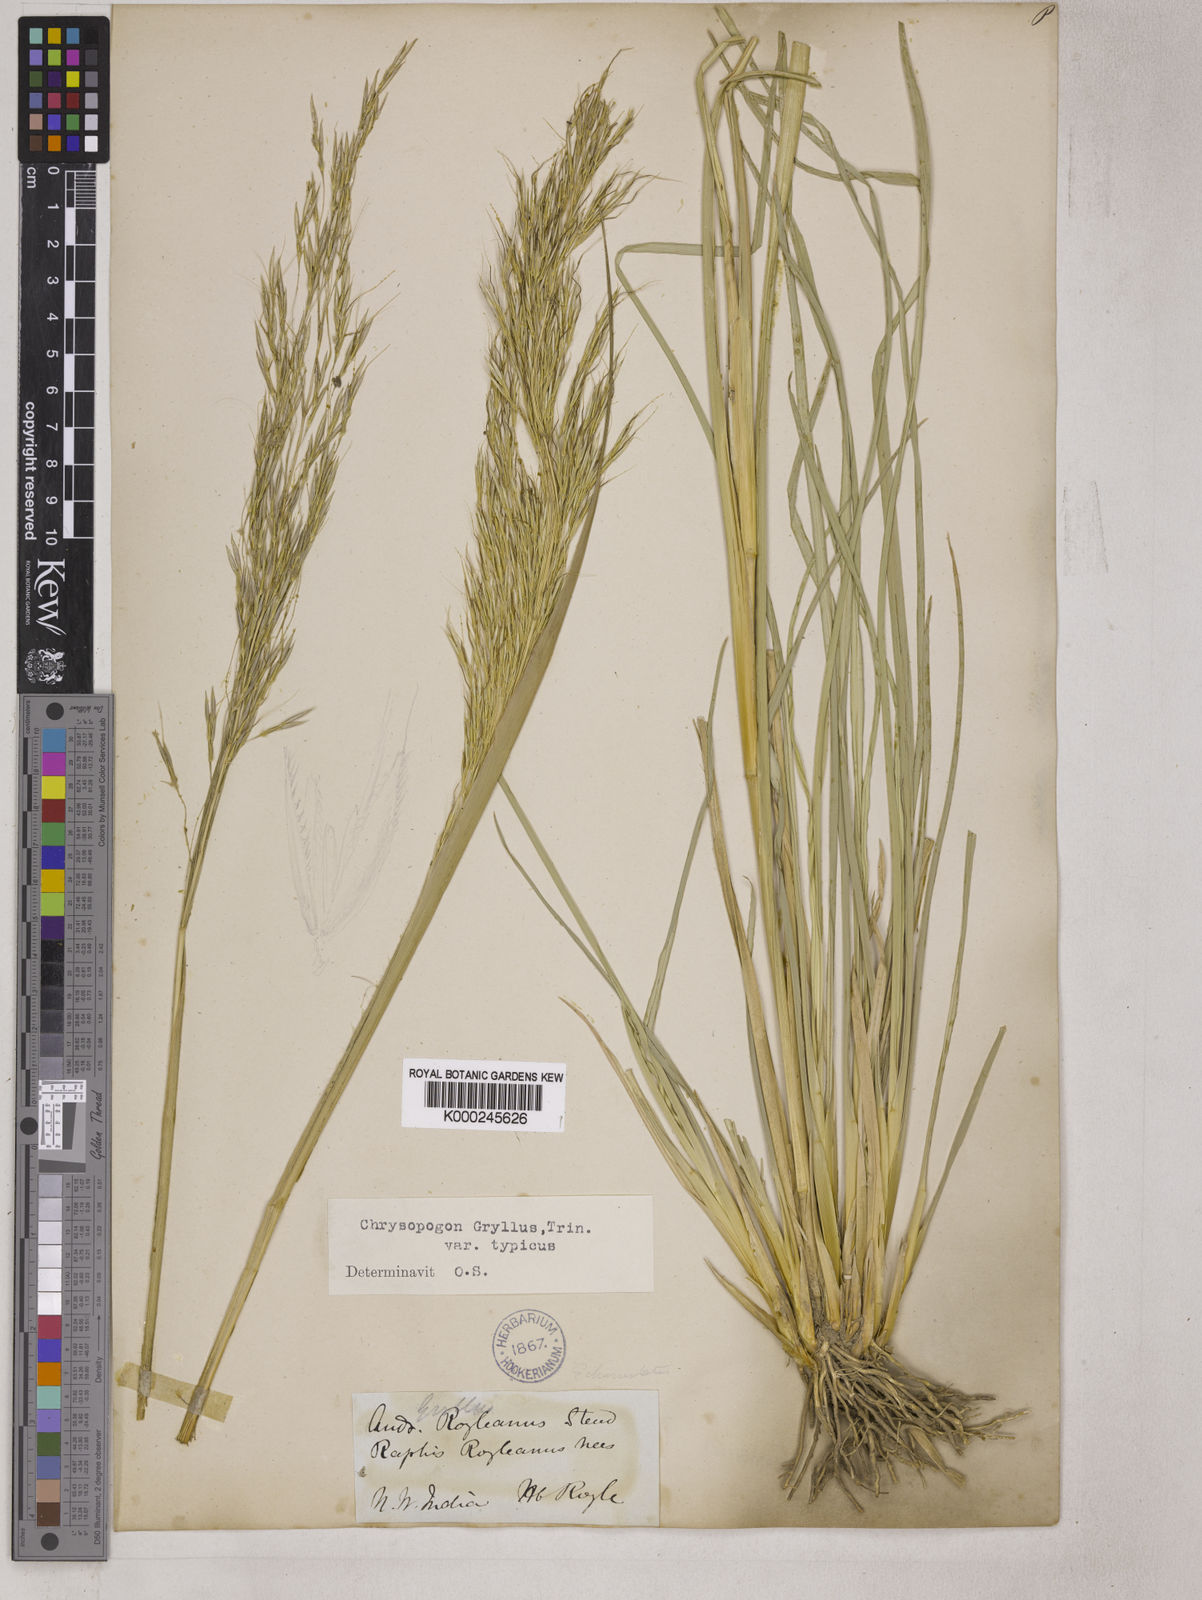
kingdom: Plantae
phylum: Tracheophyta
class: Liliopsida
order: Poales
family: Poaceae
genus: Chrysopogon
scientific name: Chrysopogon gryllus
